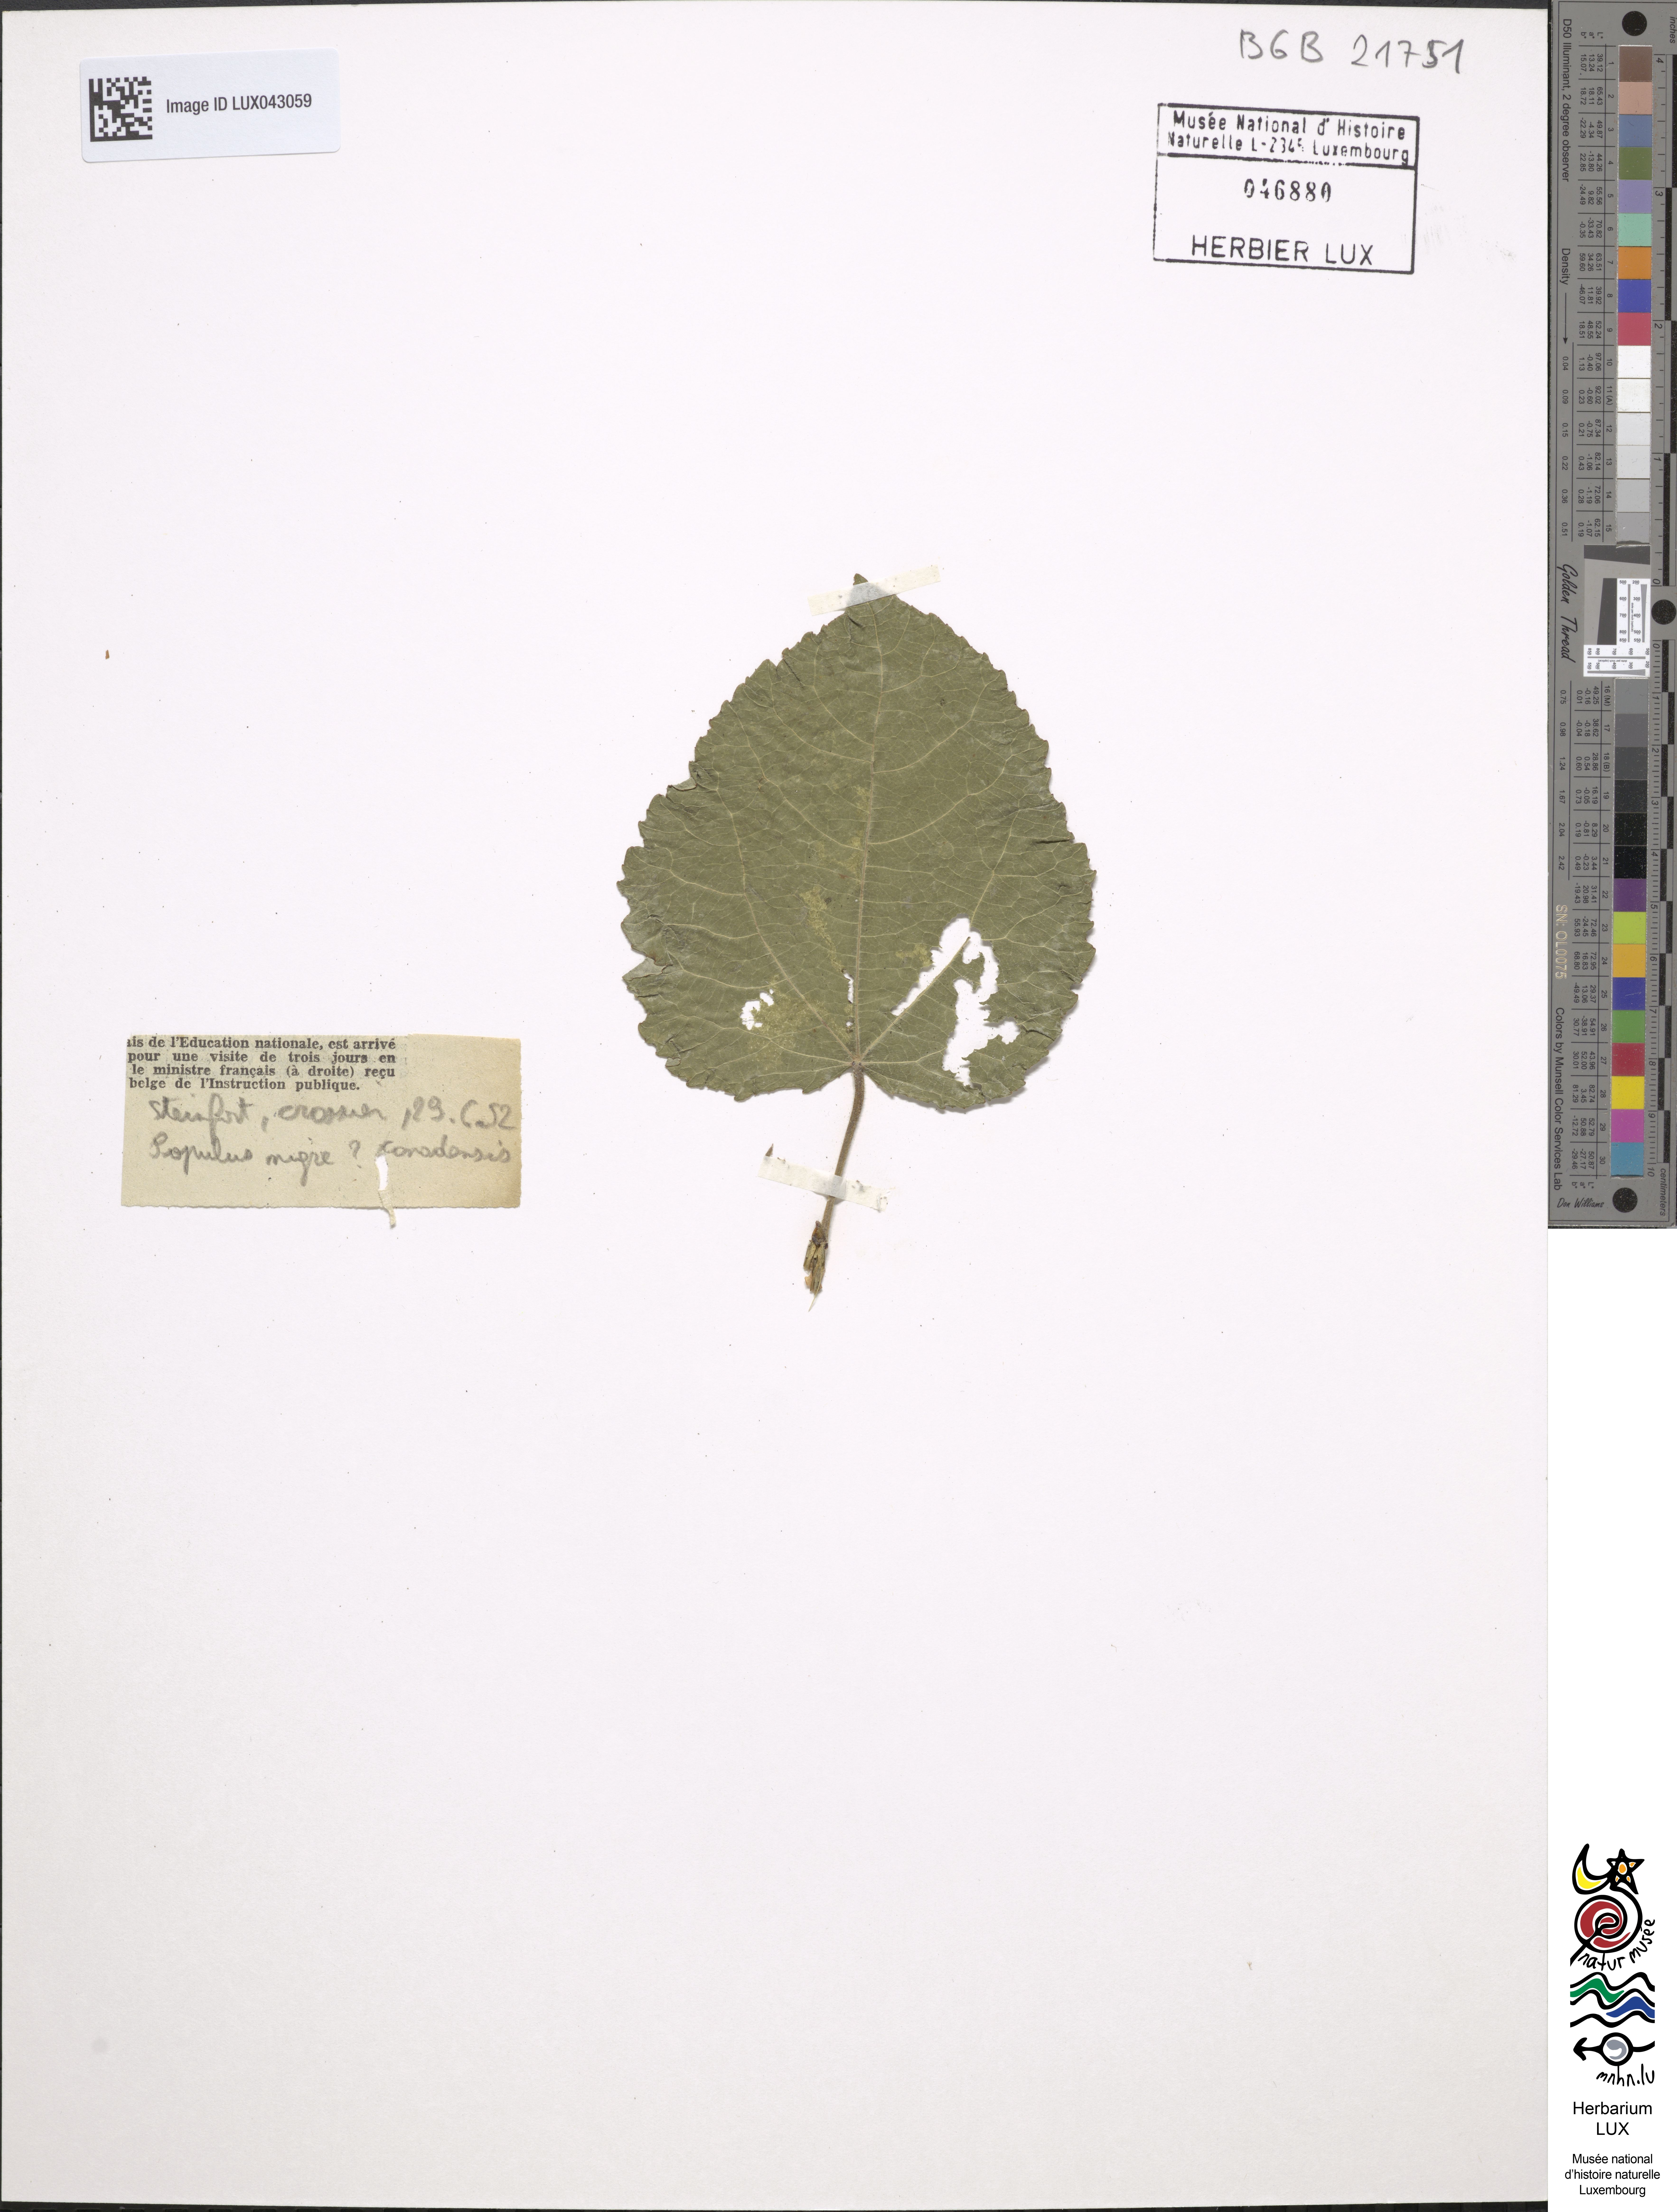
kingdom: Plantae
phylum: Tracheophyta
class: Magnoliopsida
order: Malpighiales
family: Salicaceae
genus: Populus
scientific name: Populus
